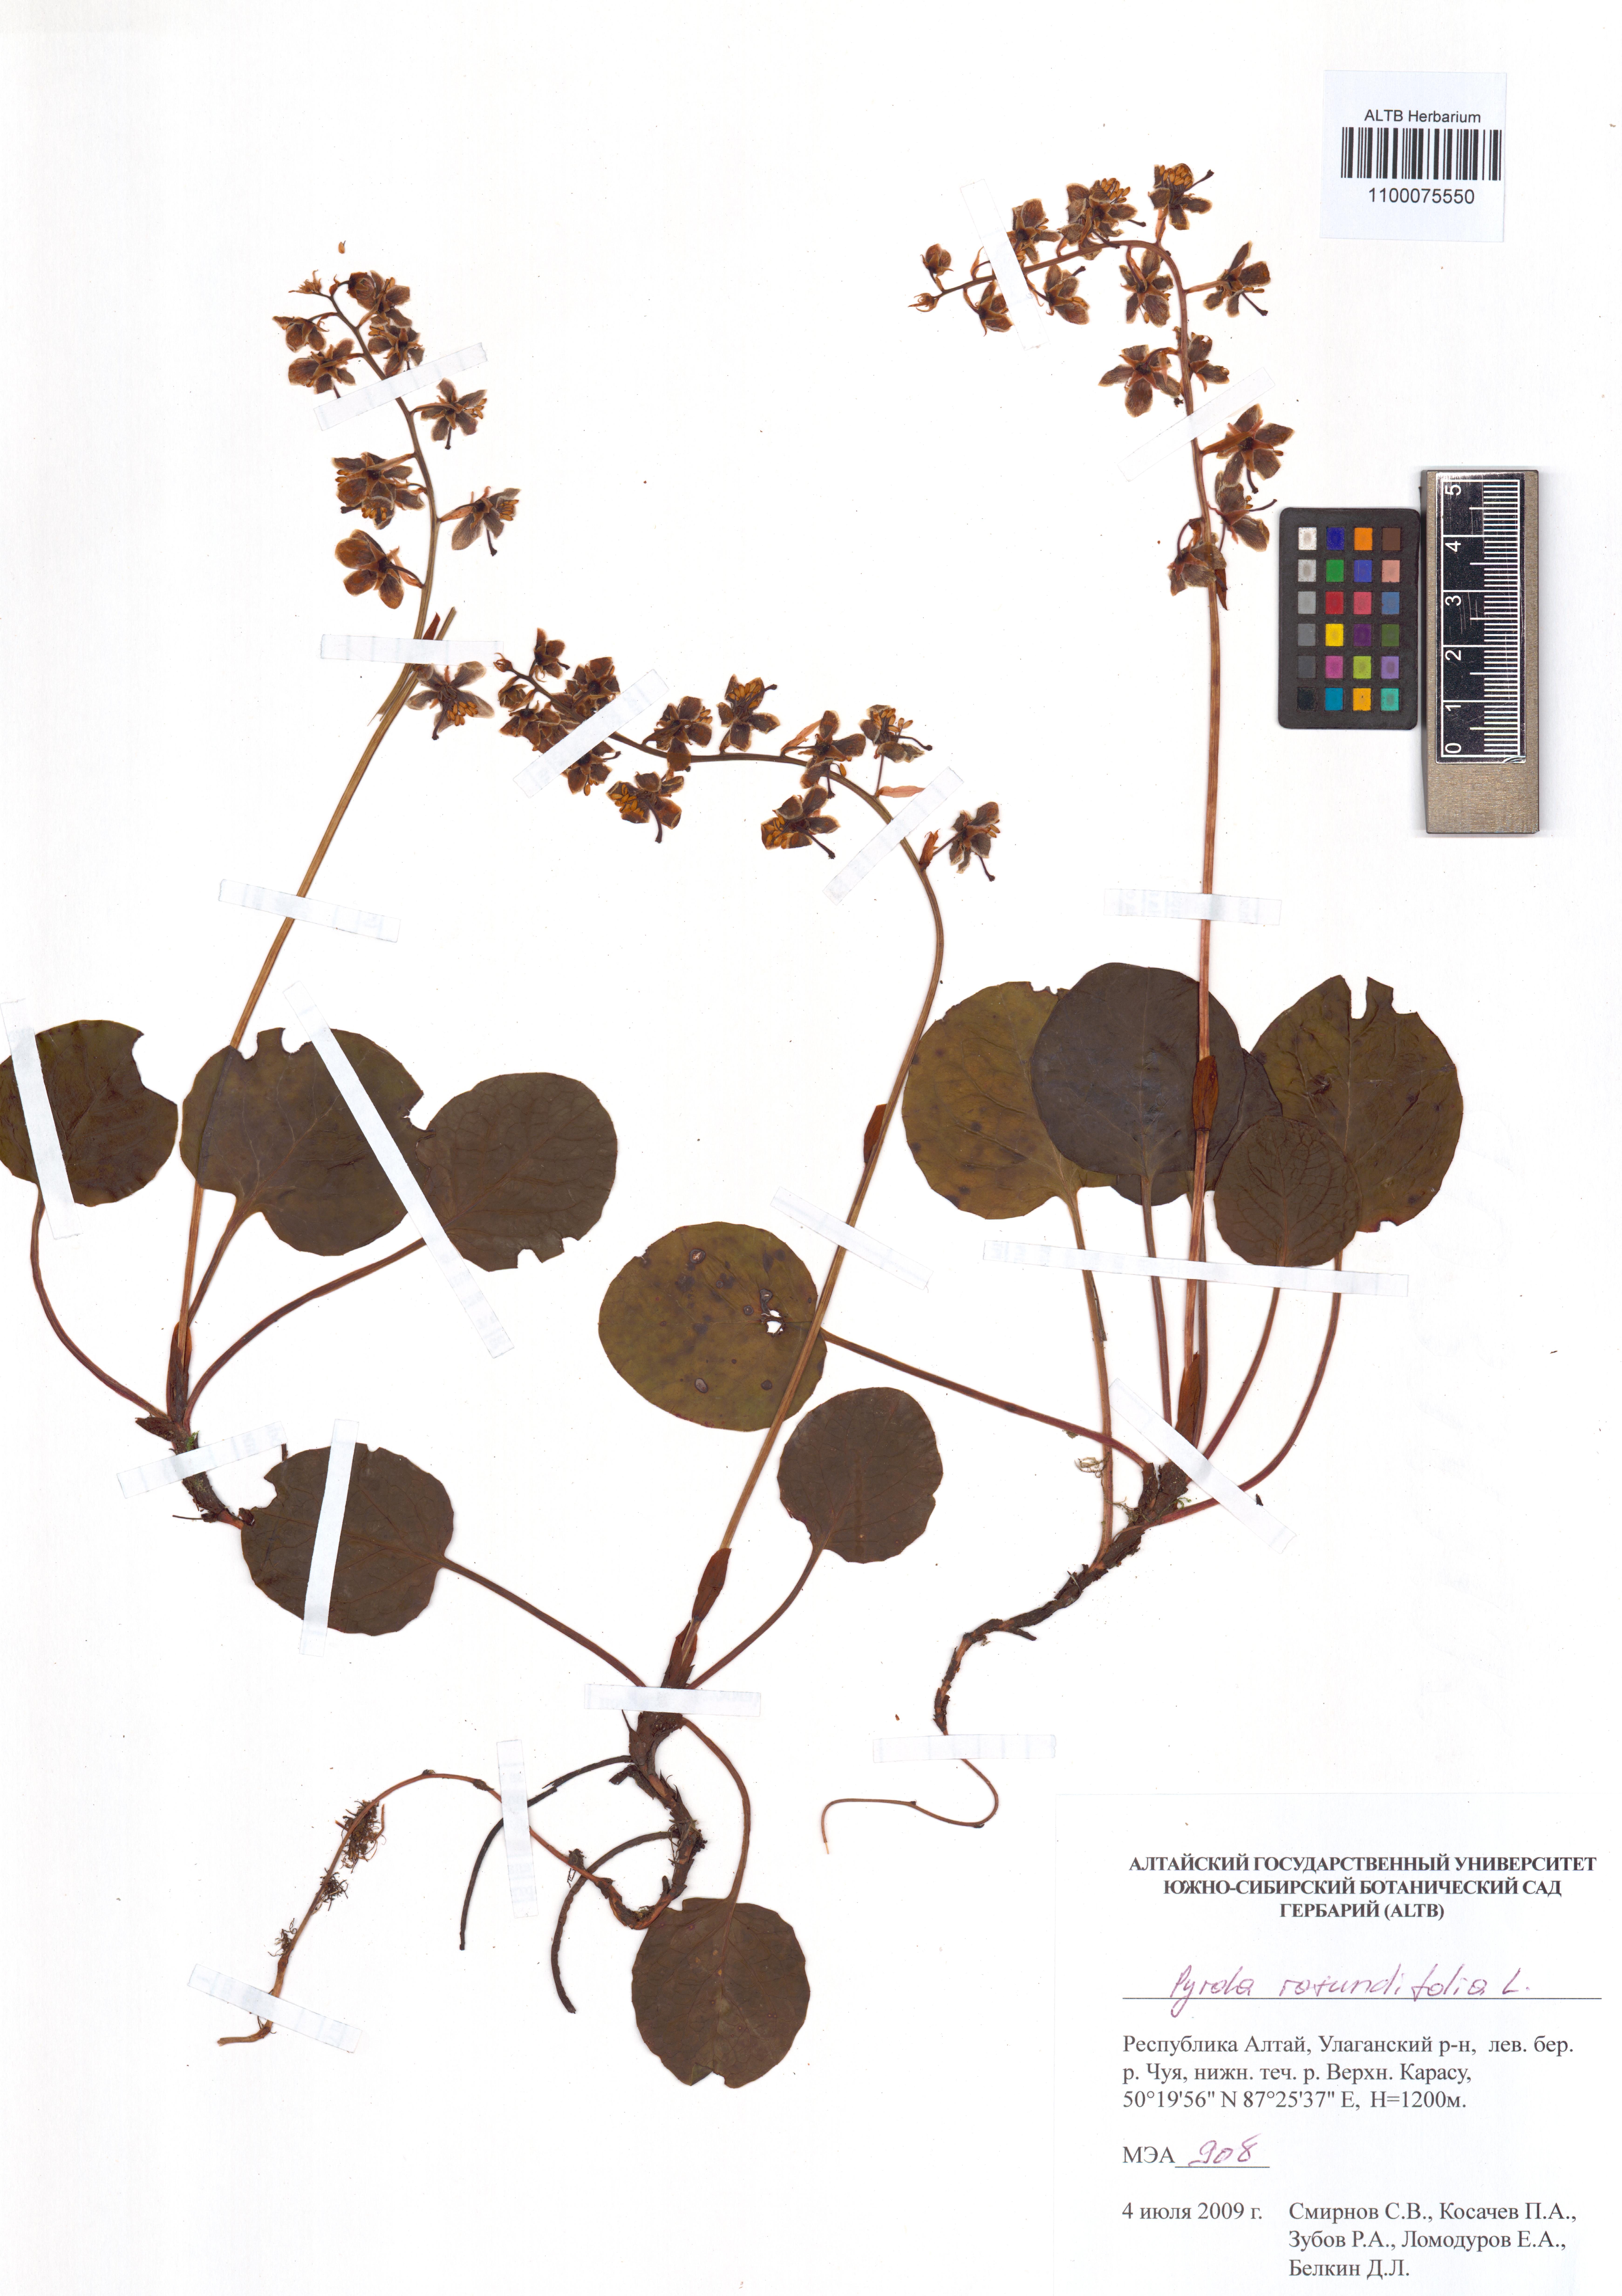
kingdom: Plantae
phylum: Tracheophyta
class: Magnoliopsida
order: Ericales
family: Ericaceae
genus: Pyrola
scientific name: Pyrola rotundifolia
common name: Round-leaved wintergreen
